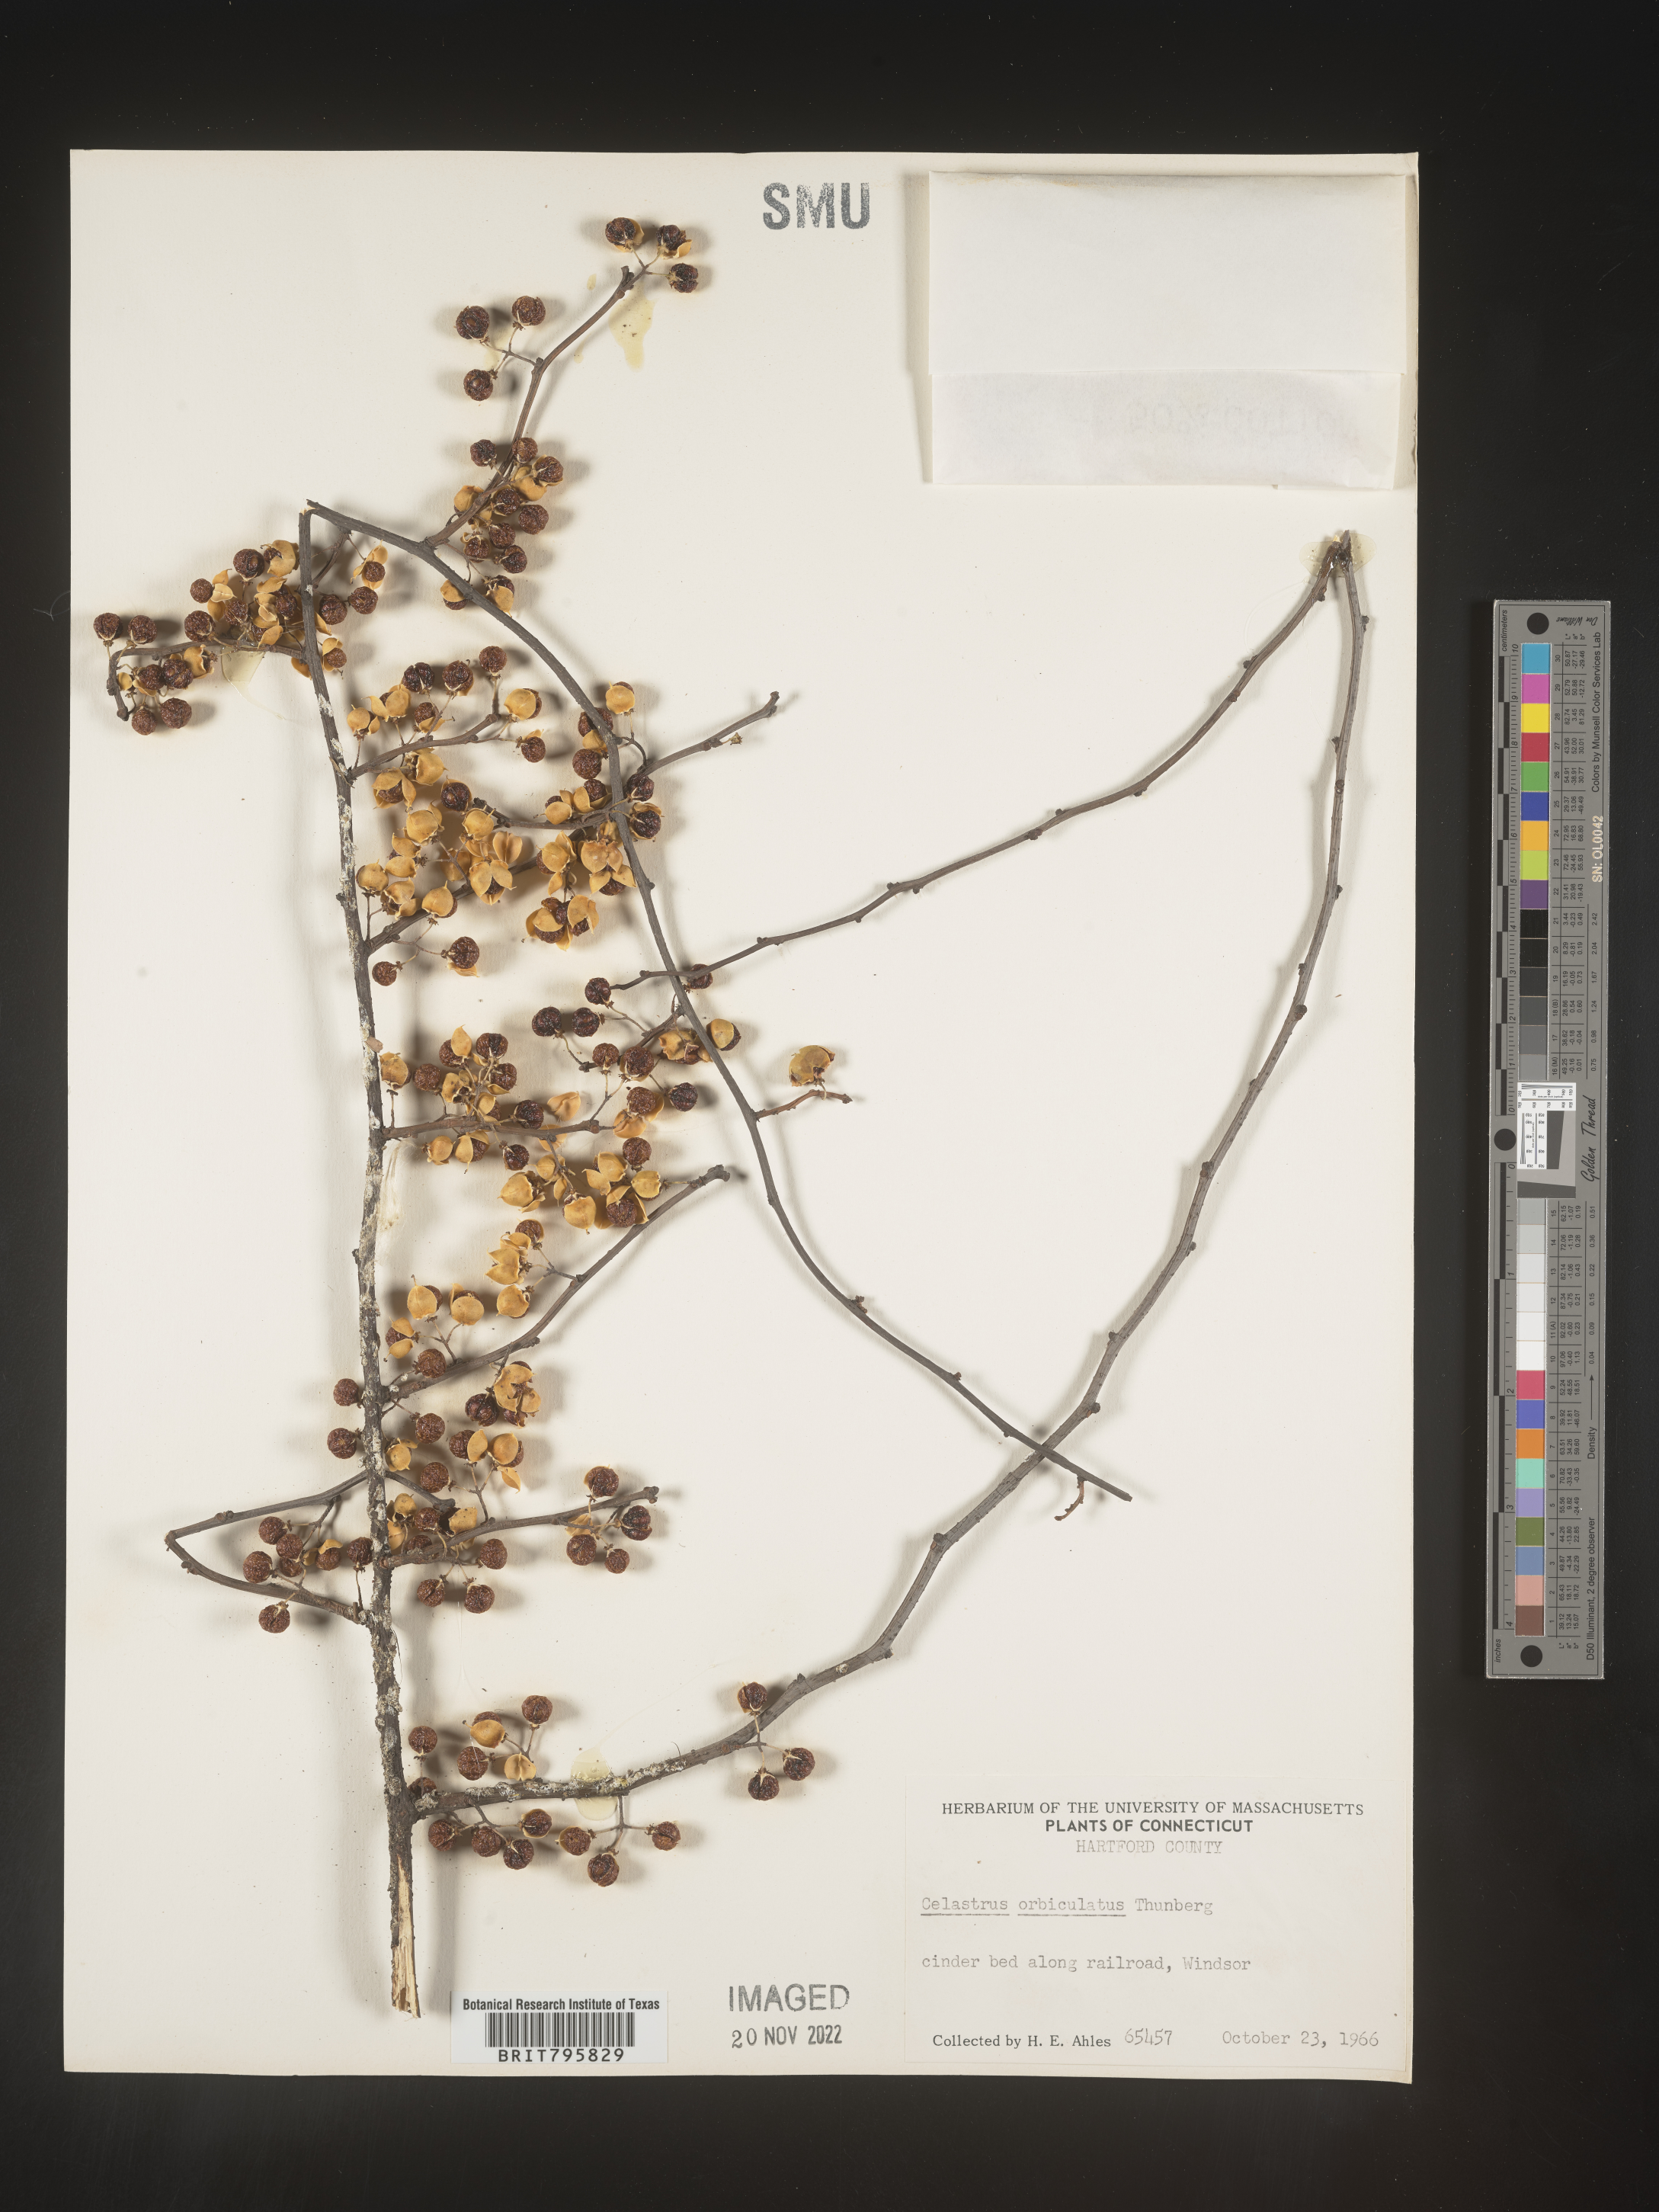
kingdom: Plantae
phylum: Tracheophyta
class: Magnoliopsida
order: Celastrales
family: Celastraceae
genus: Celastrus
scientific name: Celastrus
